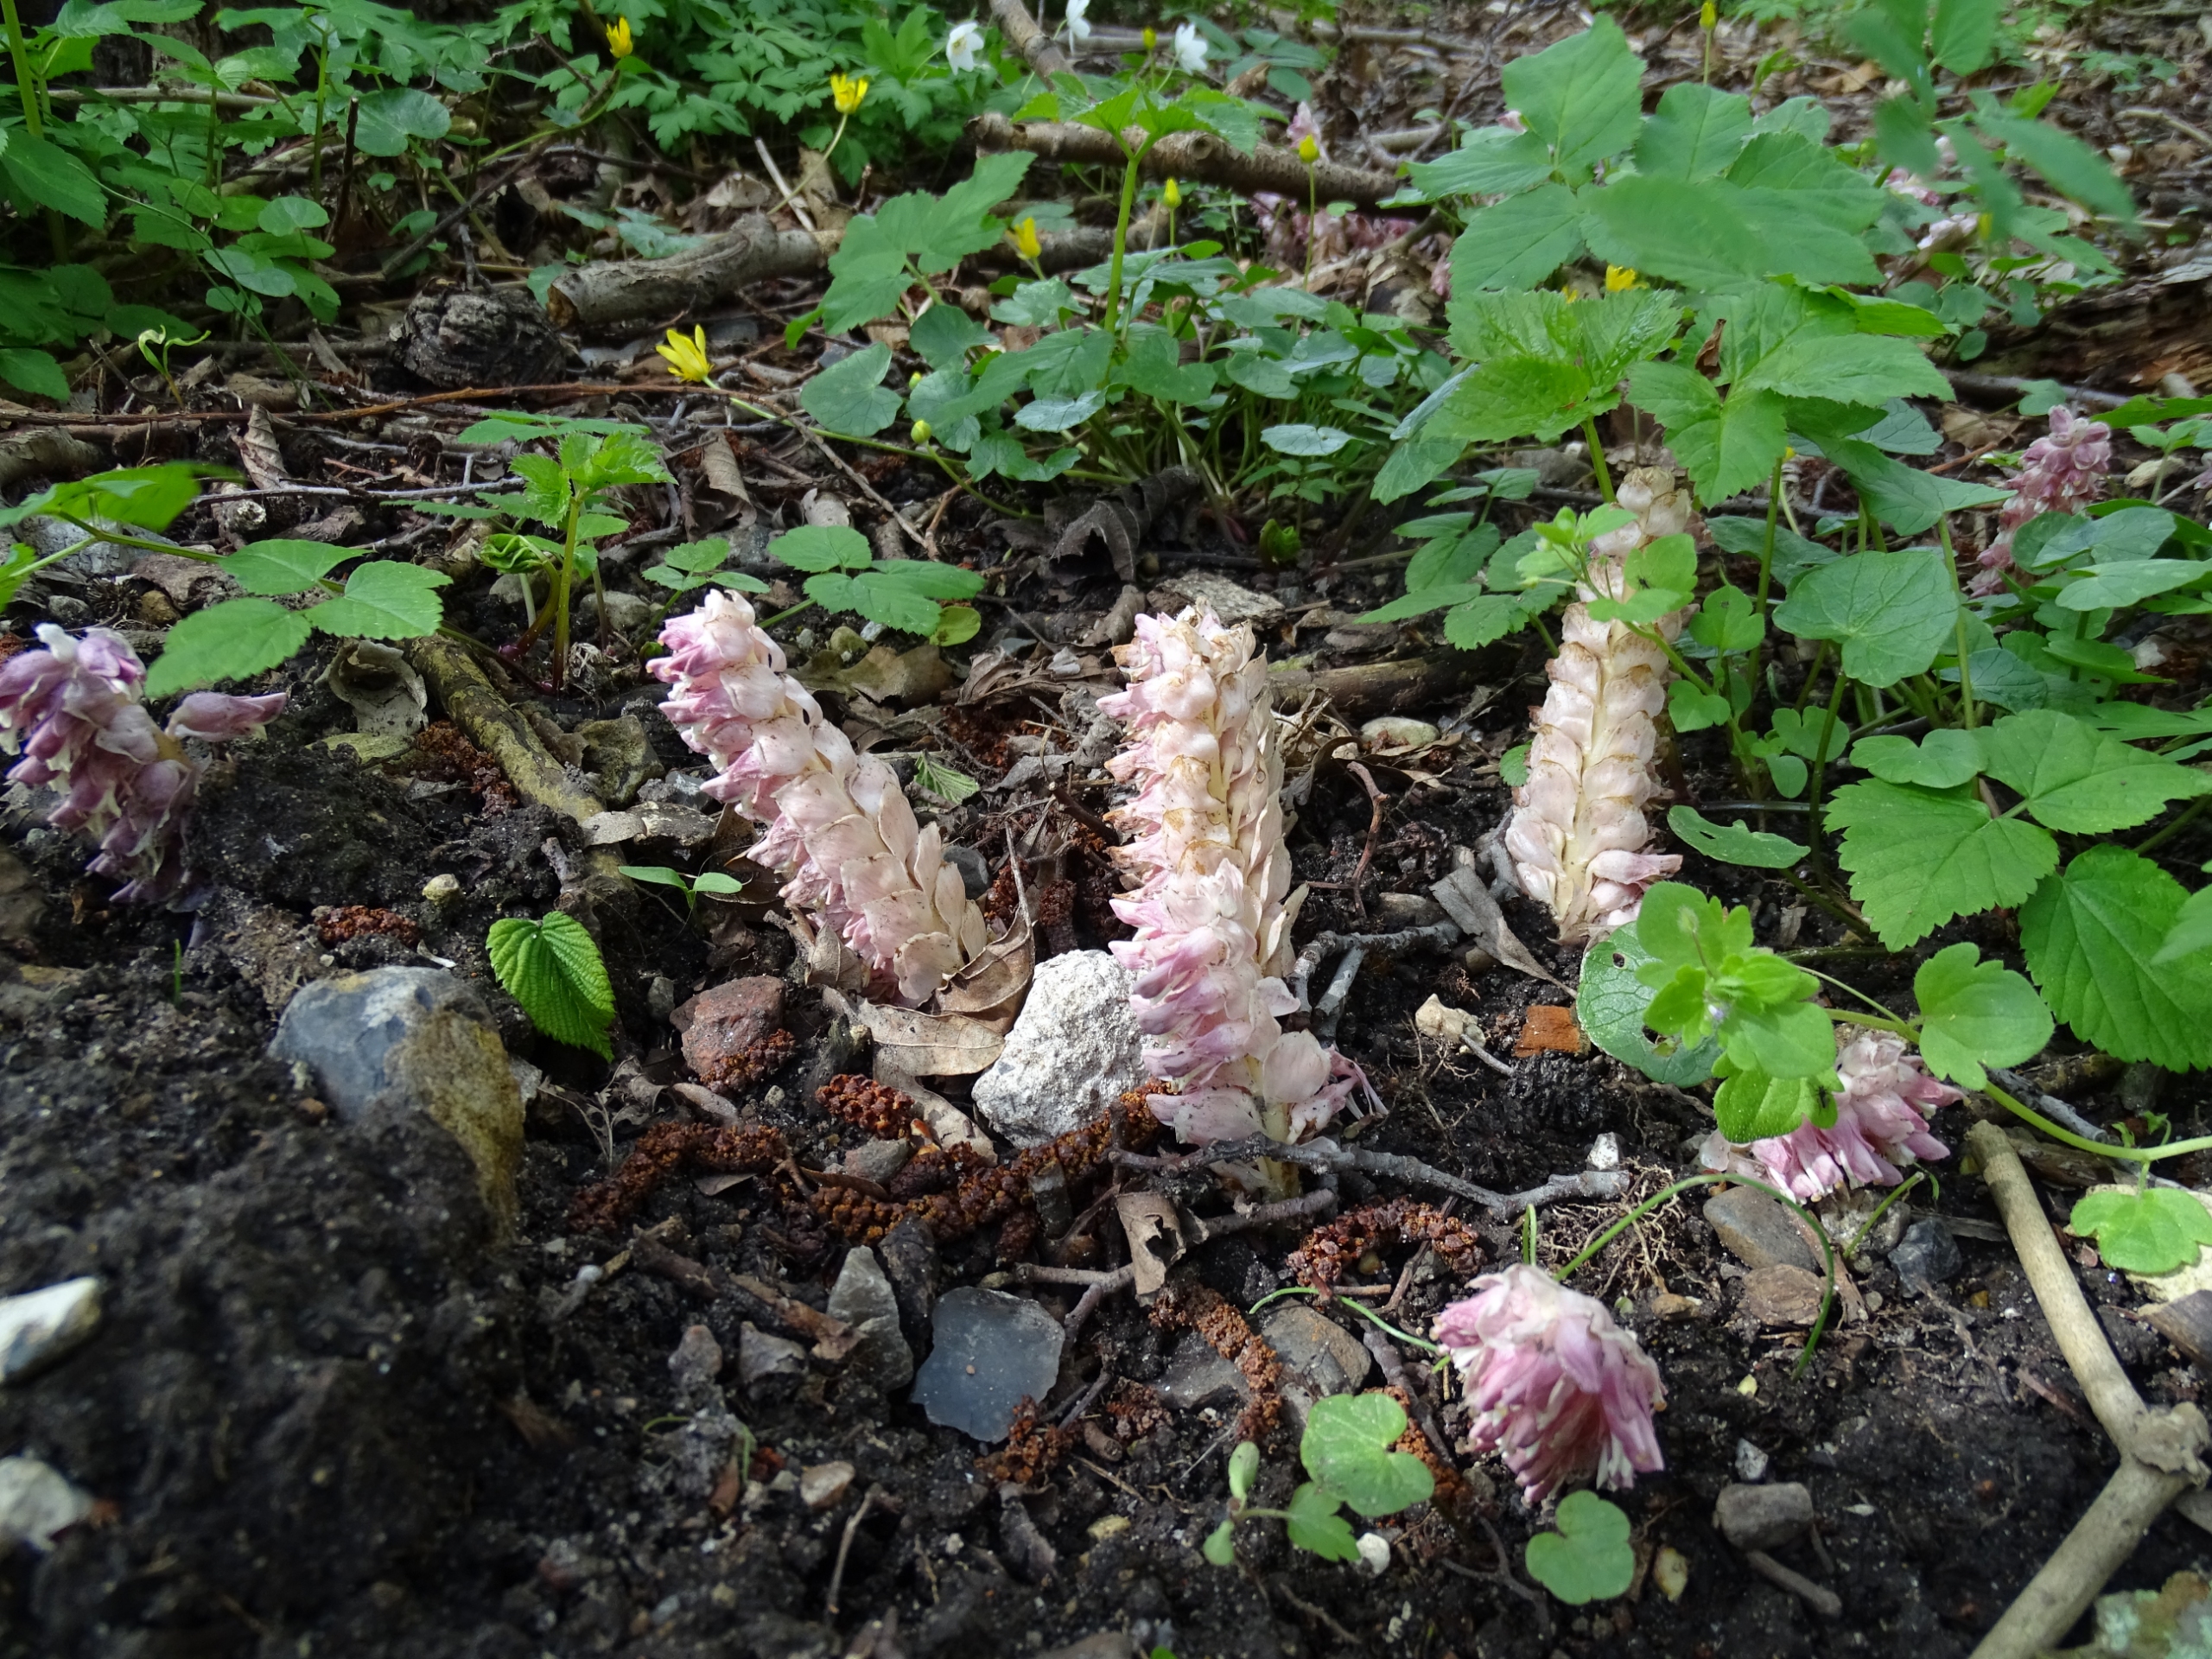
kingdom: Plantae
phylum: Tracheophyta
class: Magnoliopsida
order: Lamiales
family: Orobanchaceae
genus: Lathraea
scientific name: Lathraea squamaria
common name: Skælrod
